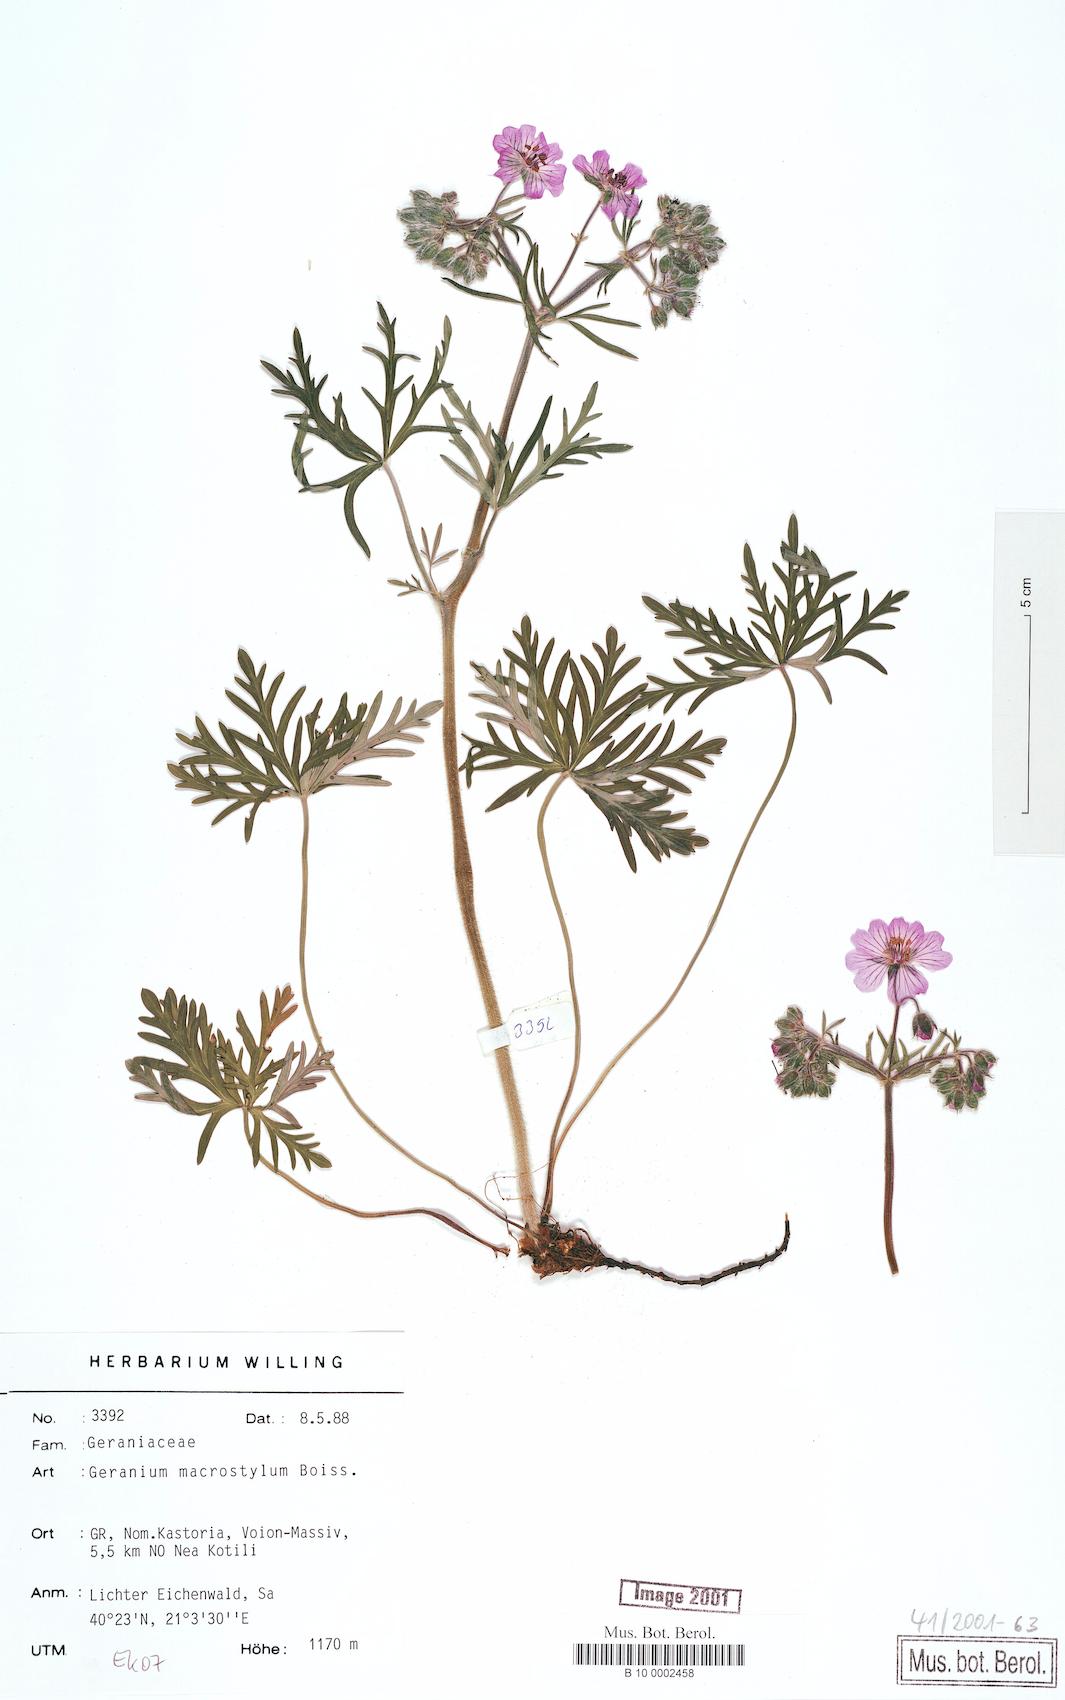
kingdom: Plantae
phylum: Tracheophyta
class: Magnoliopsida
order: Geraniales
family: Geraniaceae
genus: Geranium
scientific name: Geranium macrostylum
